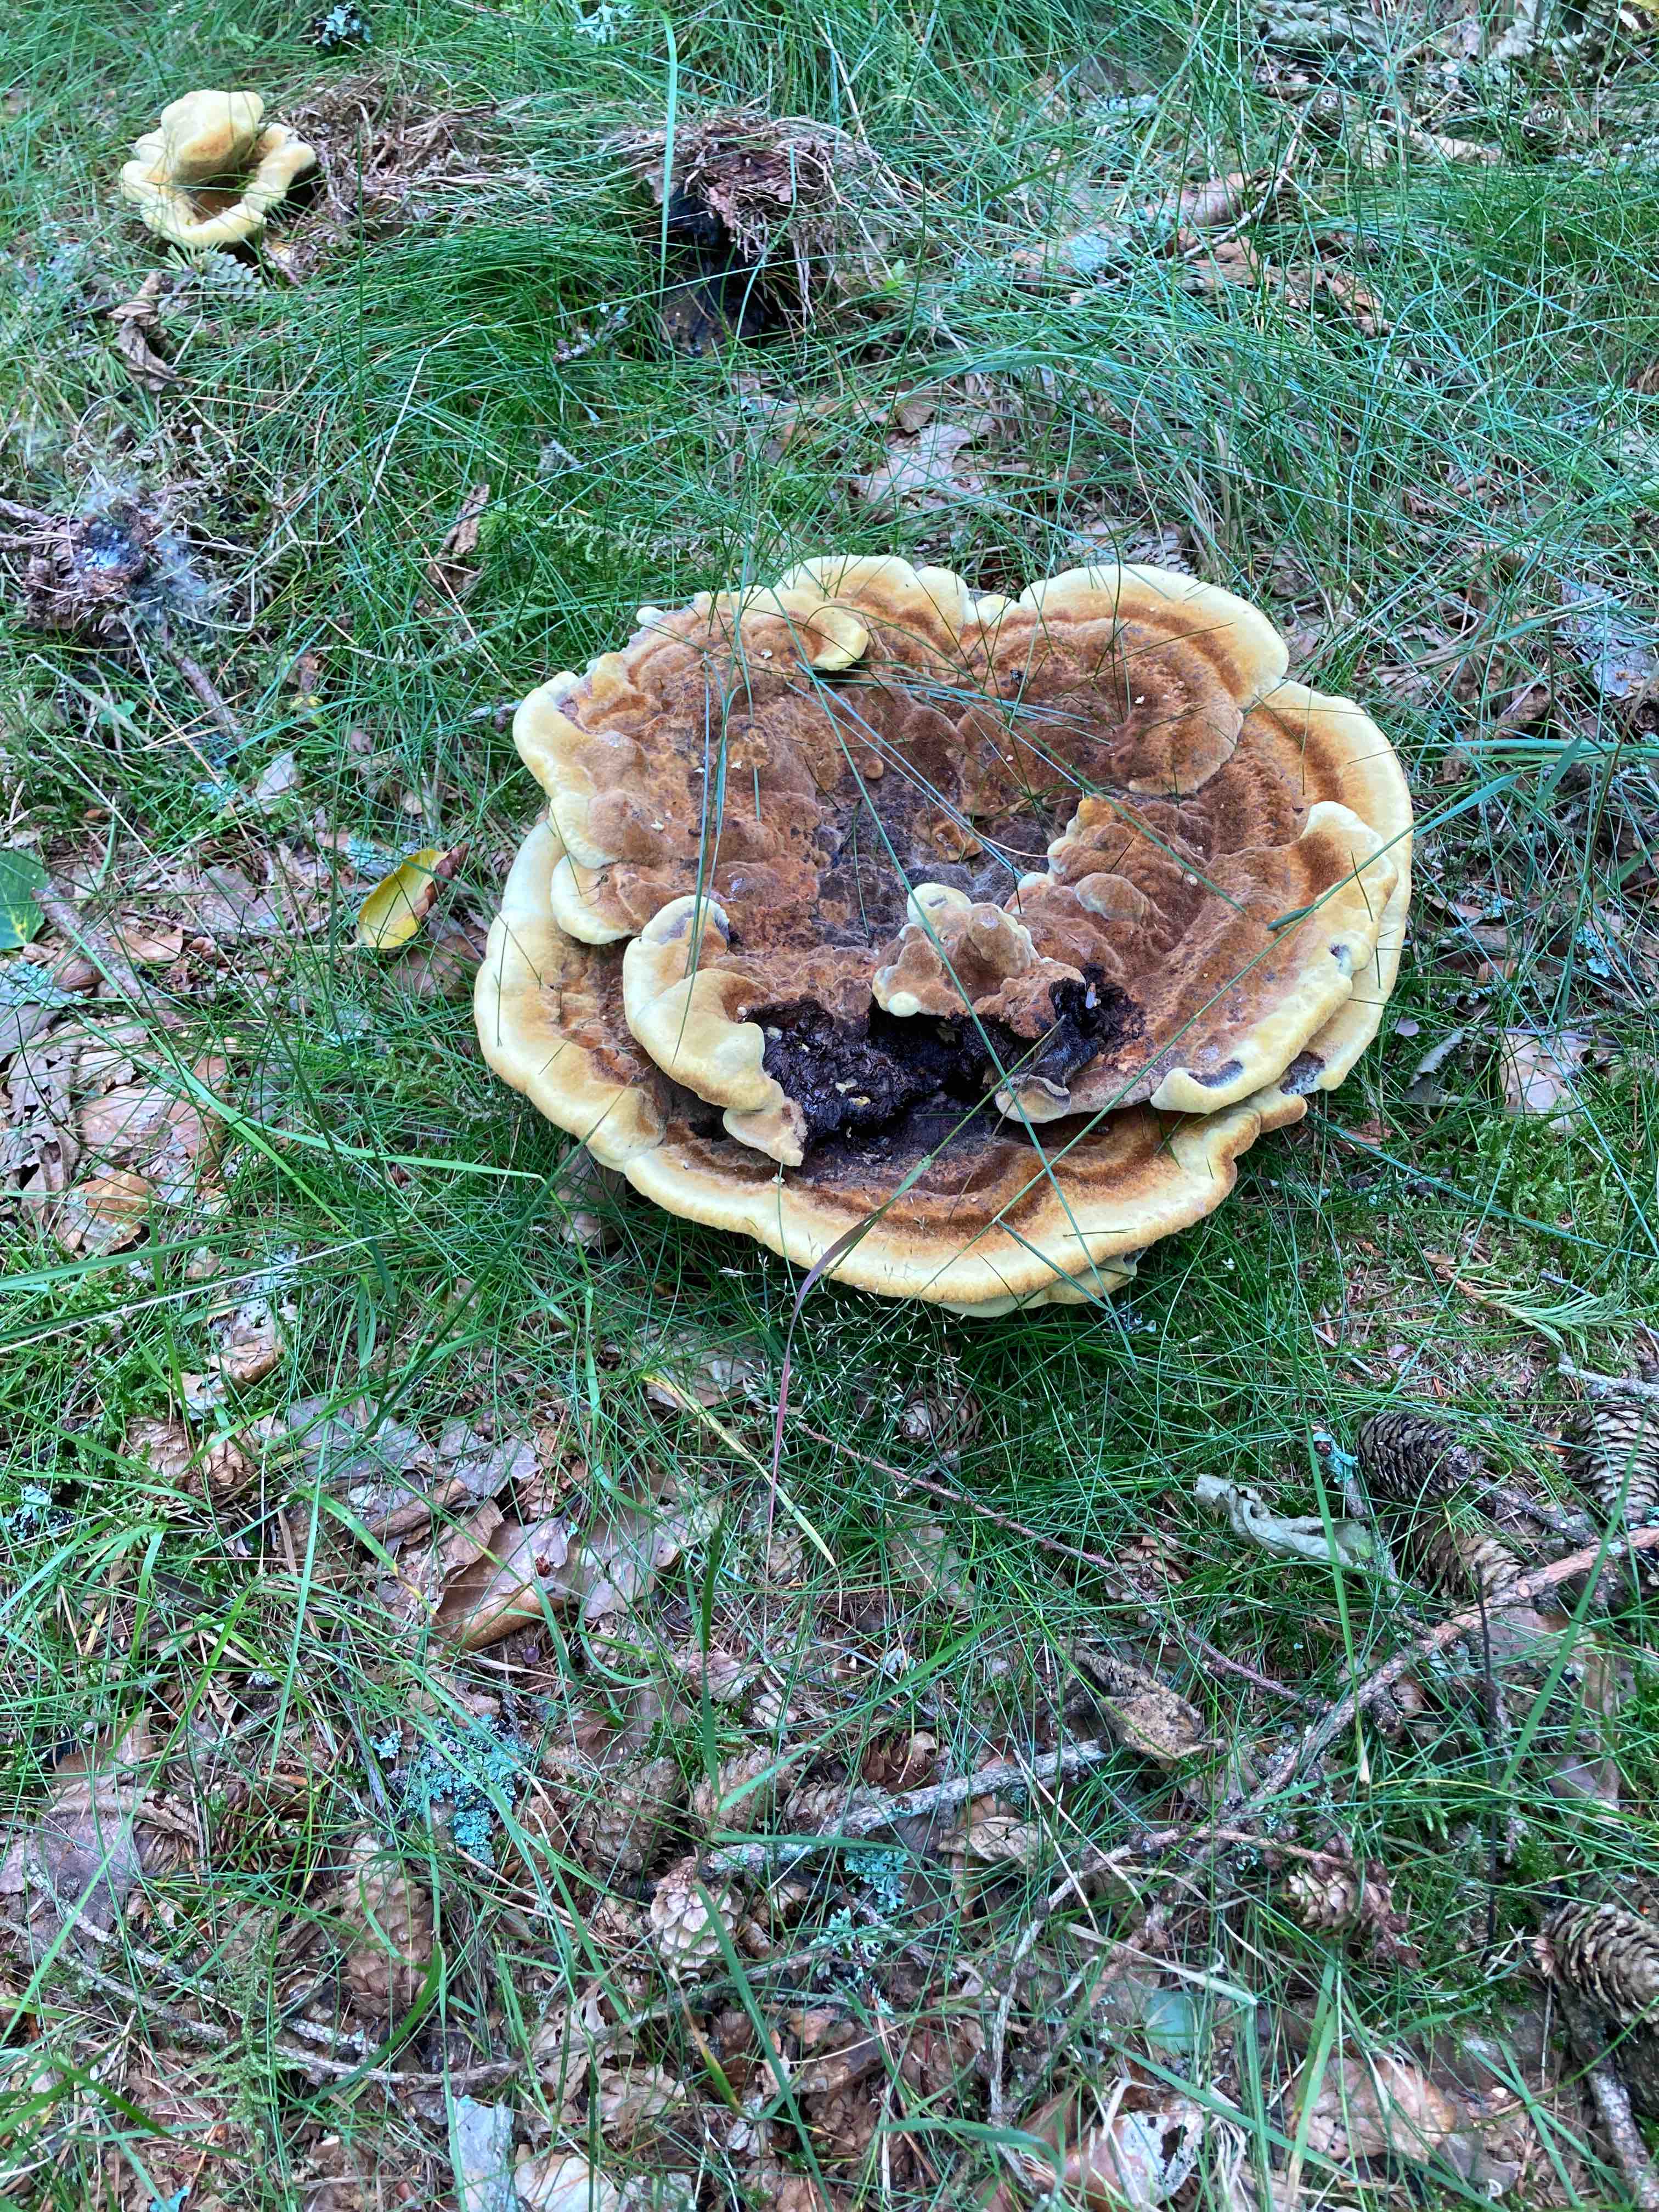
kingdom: Fungi
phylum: Basidiomycota
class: Agaricomycetes
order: Polyporales
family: Laetiporaceae
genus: Phaeolus
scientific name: Phaeolus schweinitzii
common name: brunporesvamp
